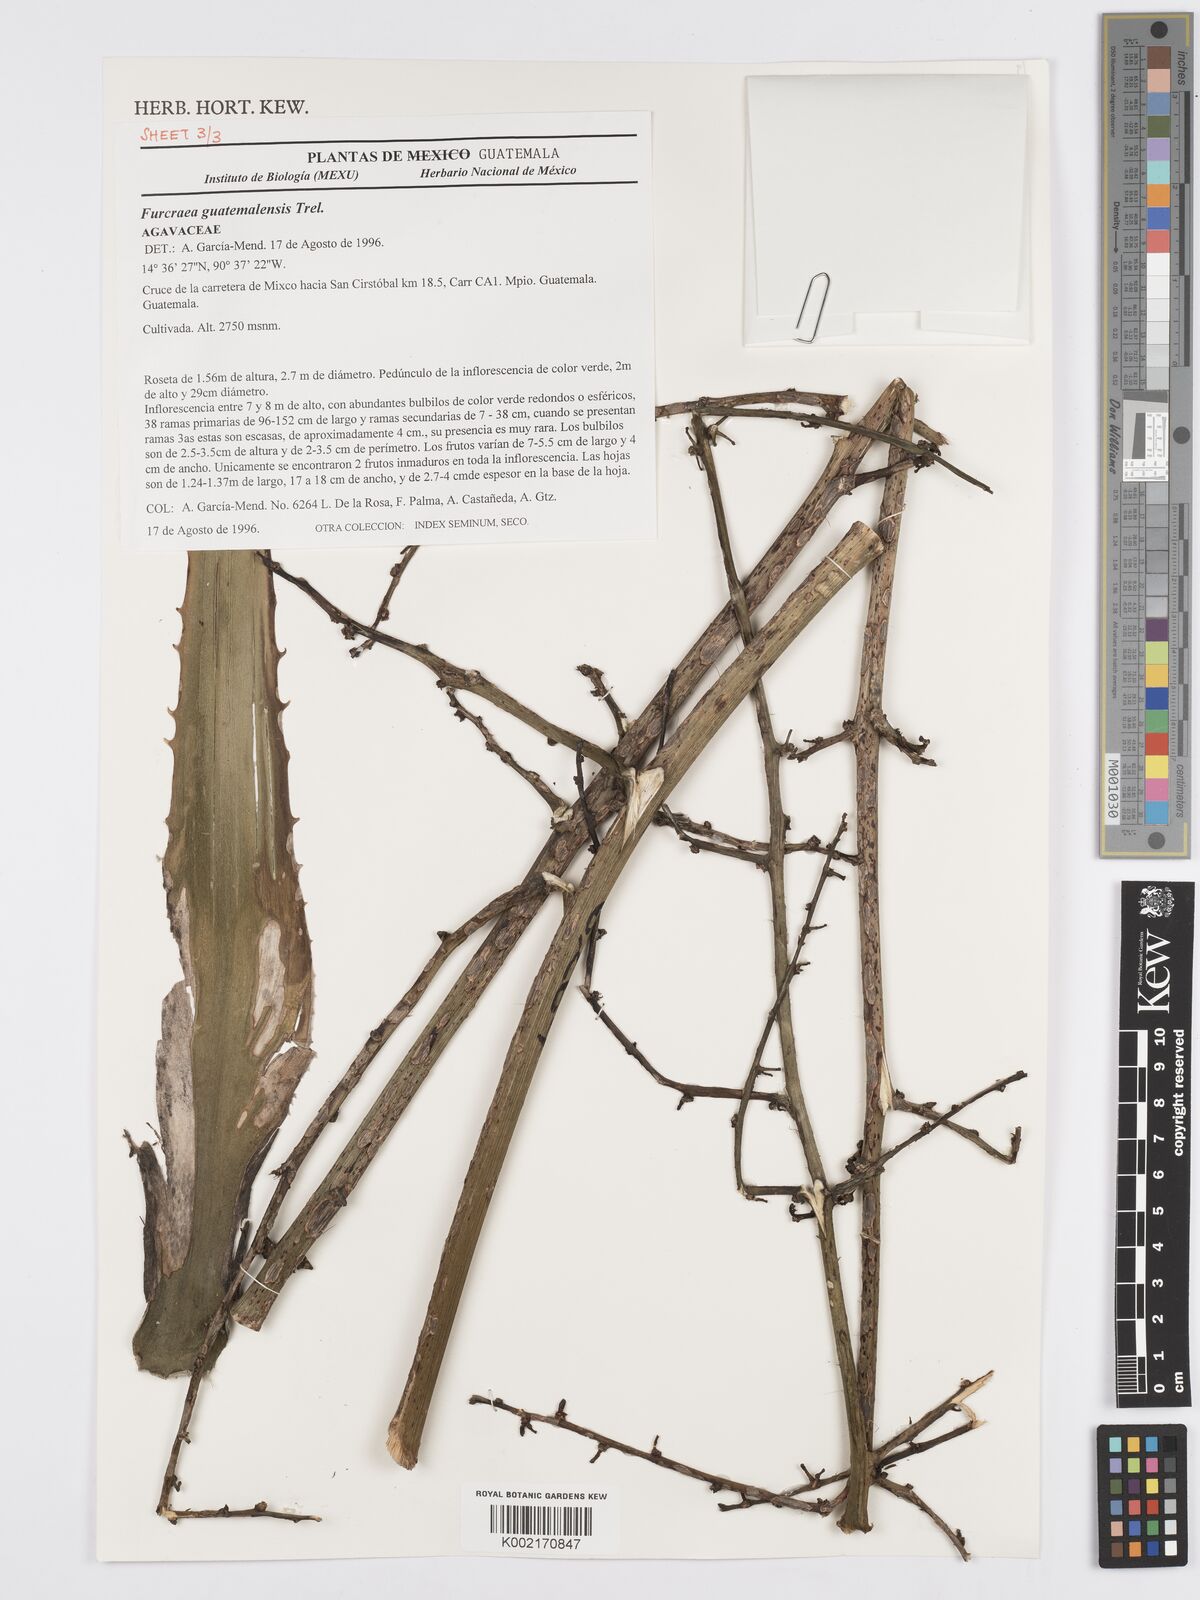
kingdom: Plantae
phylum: Tracheophyta
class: Liliopsida
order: Asparagales
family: Asparagaceae
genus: Furcraea
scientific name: Furcraea guatemalensis
